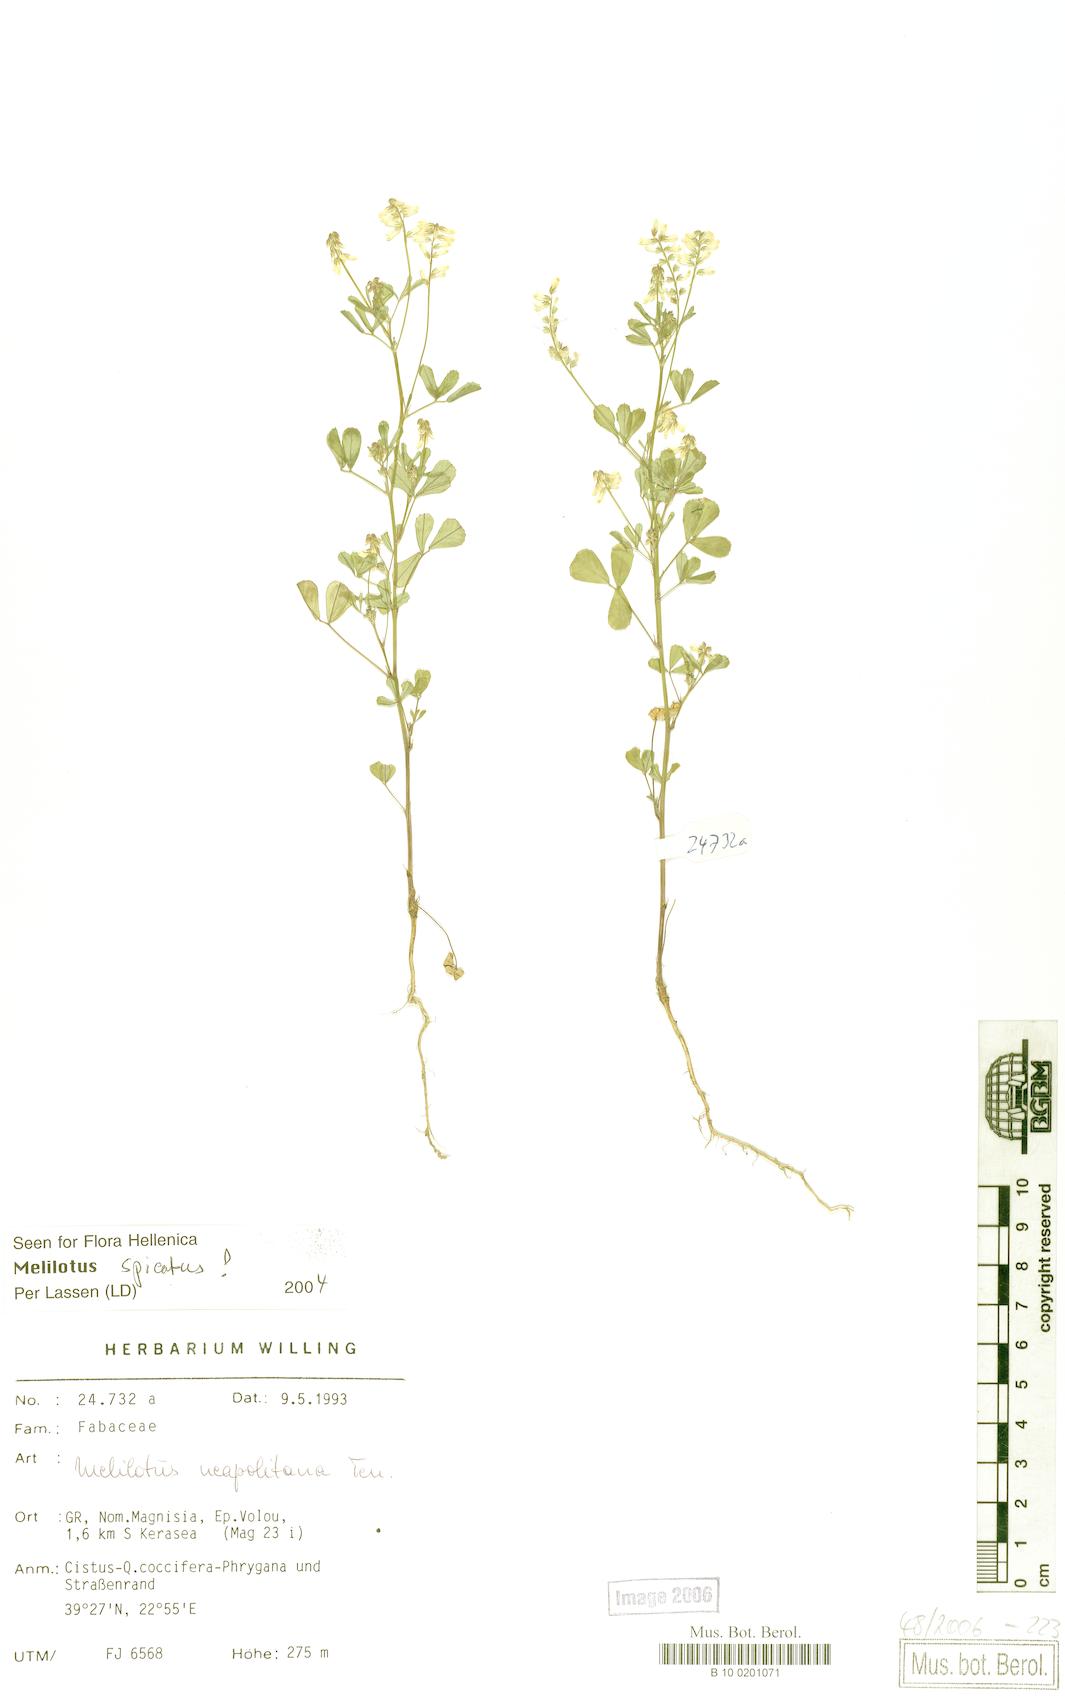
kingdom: Plantae
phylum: Tracheophyta
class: Magnoliopsida
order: Fabales
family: Fabaceae
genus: Melilotus
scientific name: Melilotus neapolitanus
